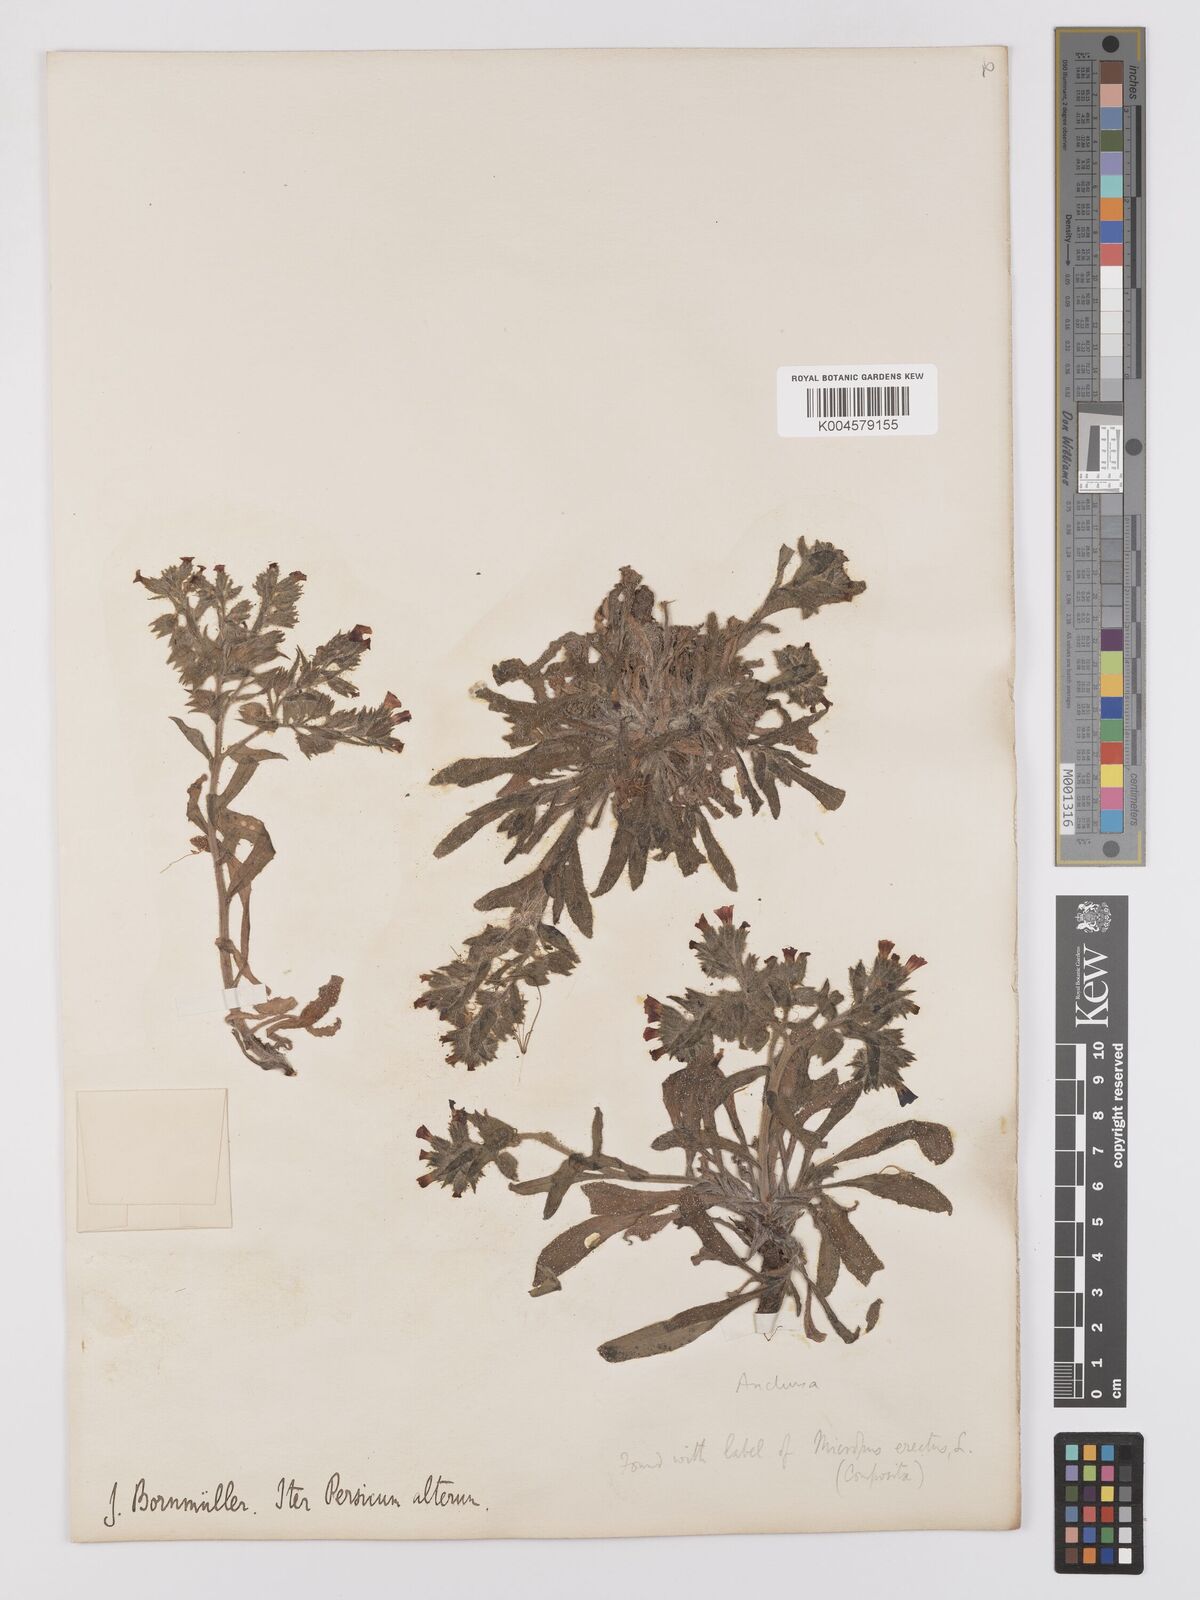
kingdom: Plantae
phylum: Tracheophyta
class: Magnoliopsida
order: Boraginales
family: Boraginaceae
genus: Nonea
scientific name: Nonea
